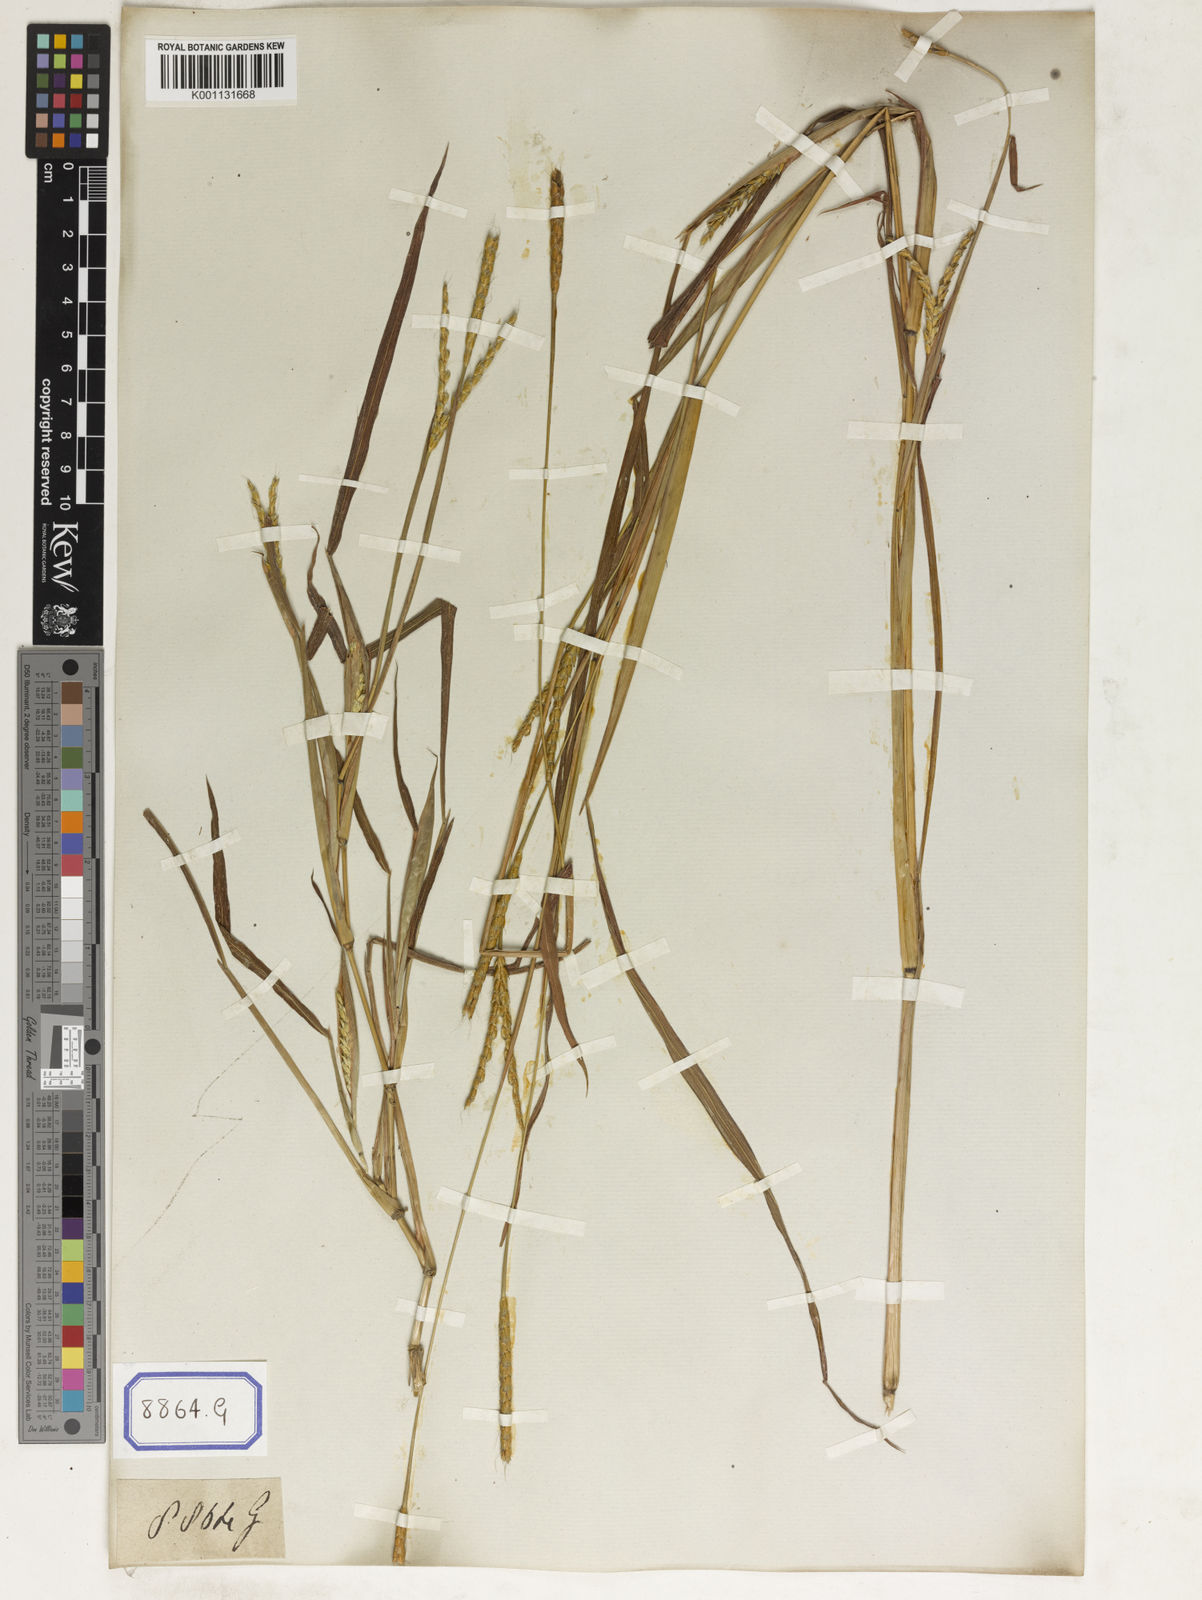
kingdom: Plantae
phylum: Tracheophyta
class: Liliopsida
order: Poales
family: Poaceae
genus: Ischaemum
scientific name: Ischaemum rugosum
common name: Saramatta grass
